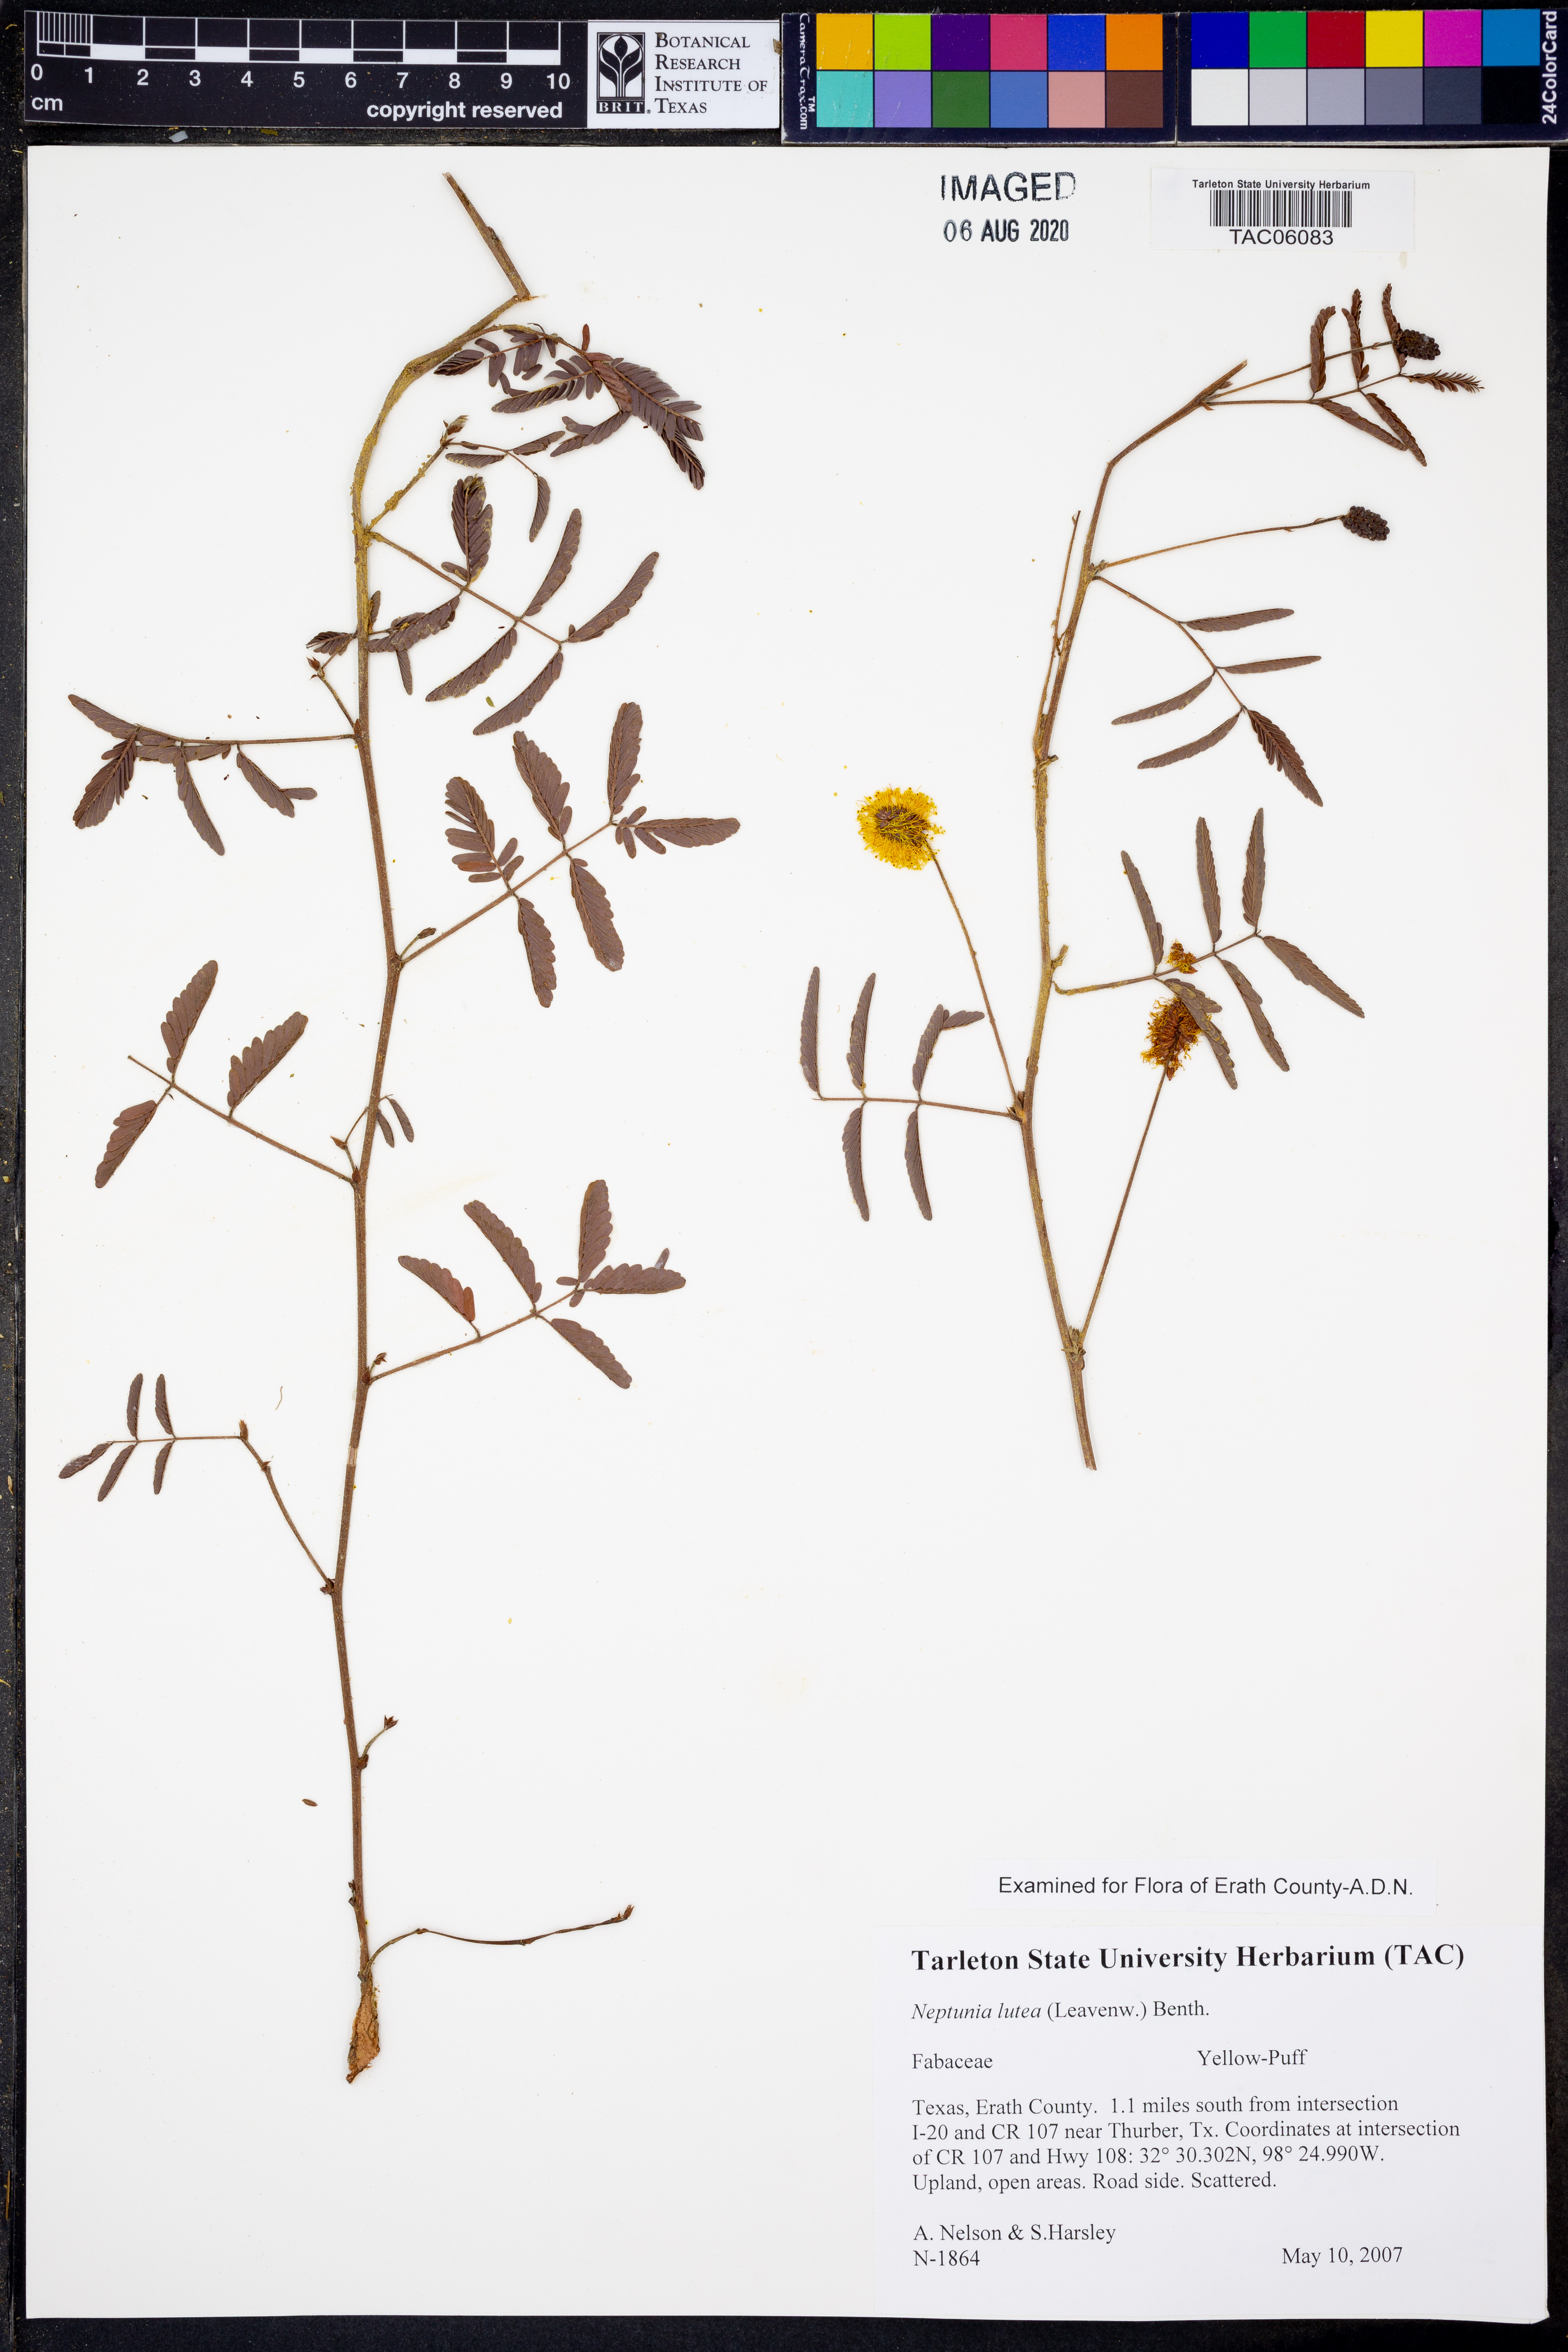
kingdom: Plantae
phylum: Tracheophyta
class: Magnoliopsida
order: Fabales
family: Fabaceae
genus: Neptunia
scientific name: Neptunia lutea
